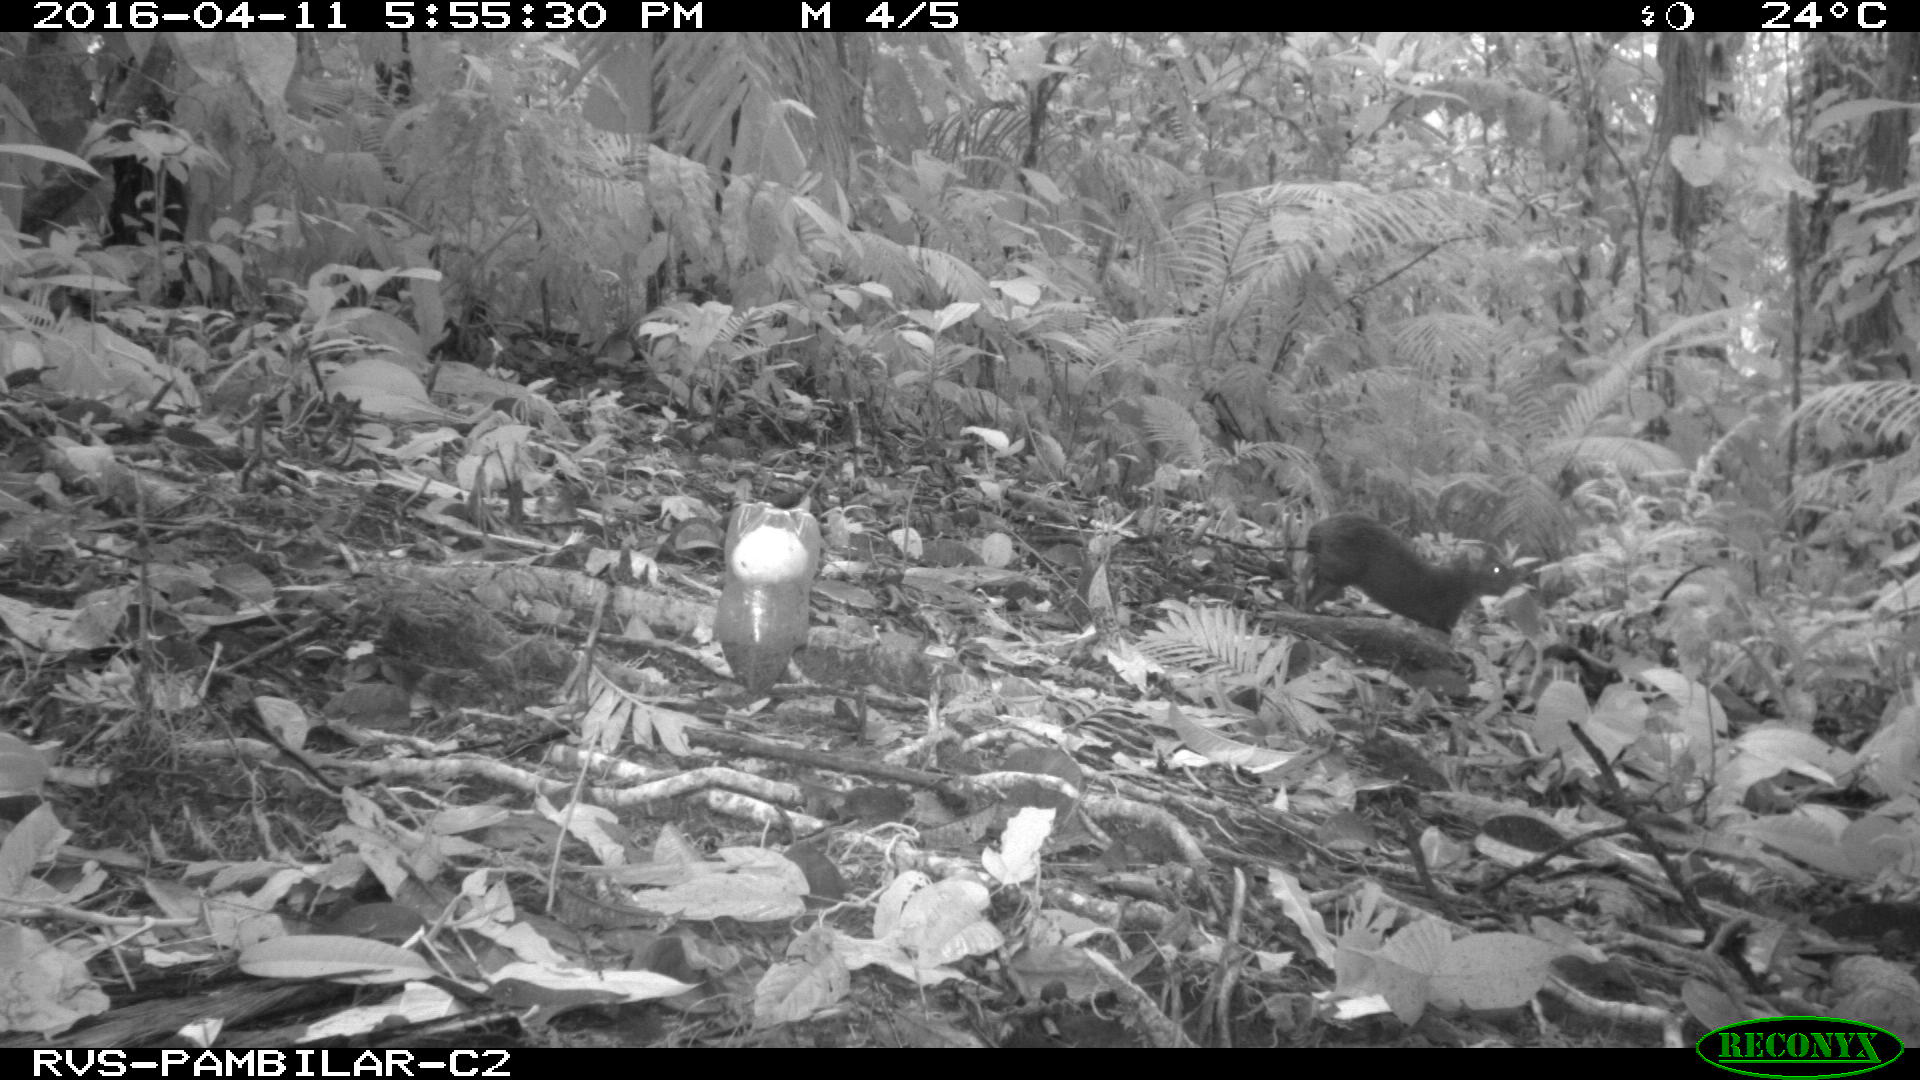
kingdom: Animalia
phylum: Chordata
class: Mammalia
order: Rodentia
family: Dasyproctidae
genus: Dasyprocta
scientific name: Dasyprocta punctata
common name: Central american agouti
